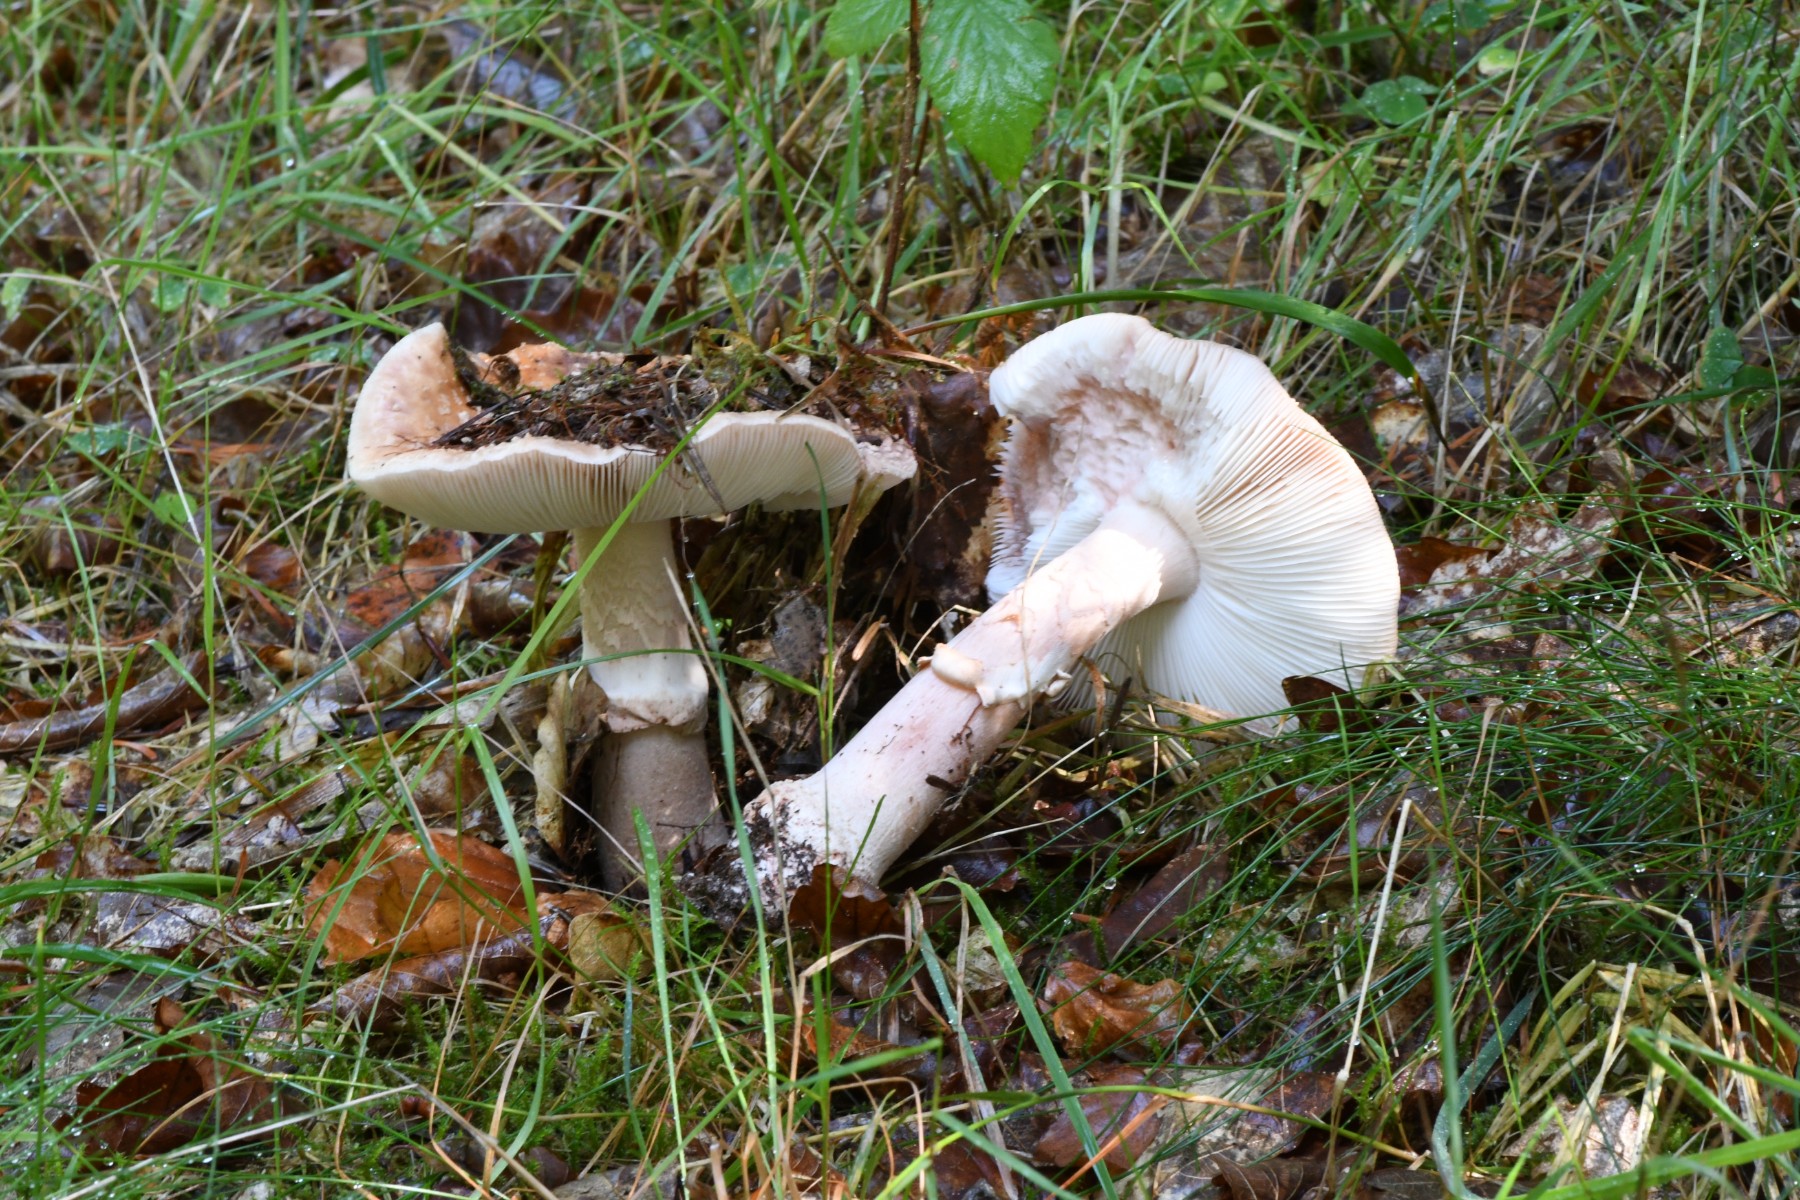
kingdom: Fungi
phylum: Basidiomycota
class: Agaricomycetes
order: Agaricales
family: Amanitaceae
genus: Amanita
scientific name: Amanita rubescens
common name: rødmende fluesvamp
